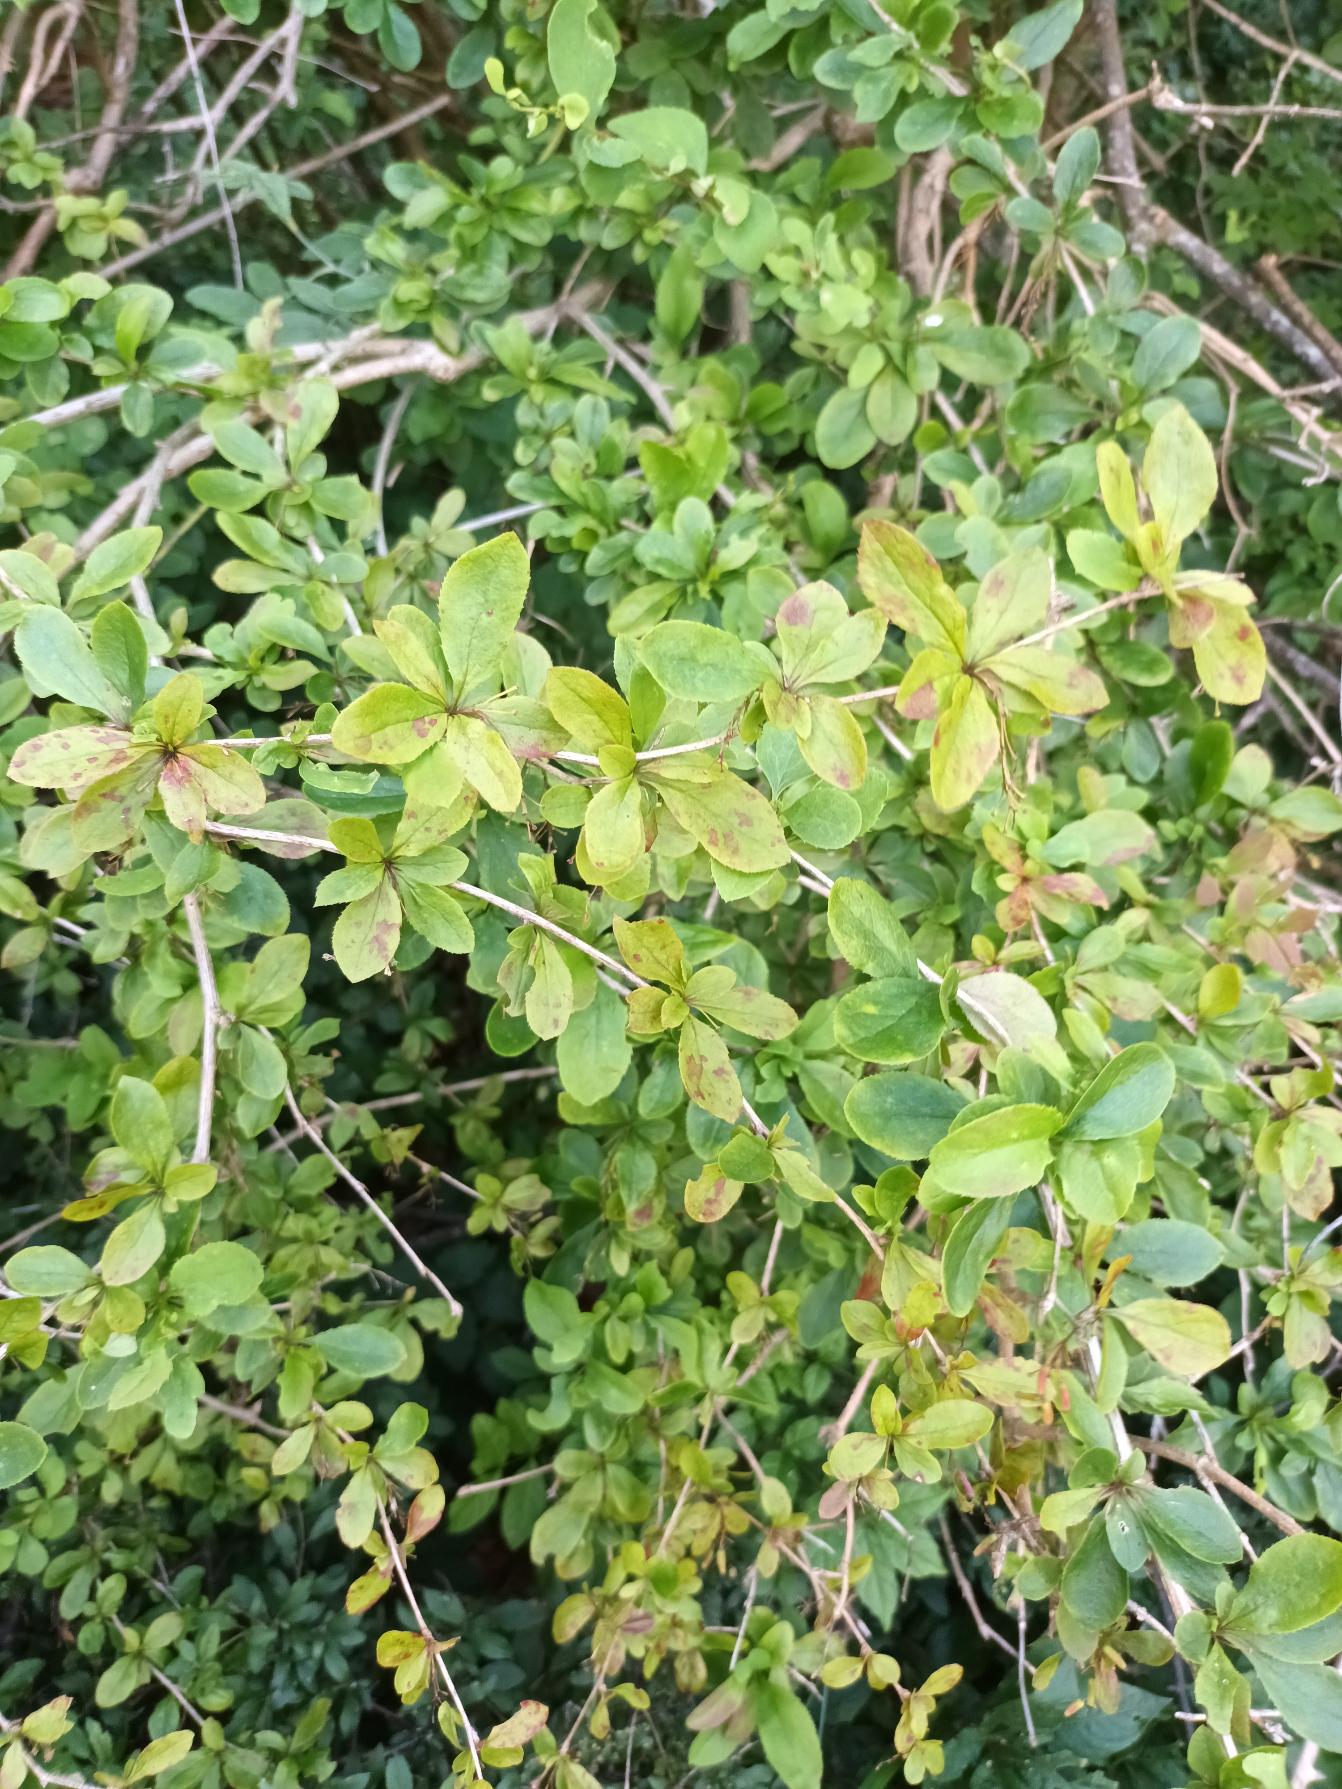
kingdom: Plantae
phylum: Tracheophyta
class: Magnoliopsida
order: Ranunculales
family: Berberidaceae
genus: Berberis
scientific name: Berberis vulgaris
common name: Almindelig berberis
